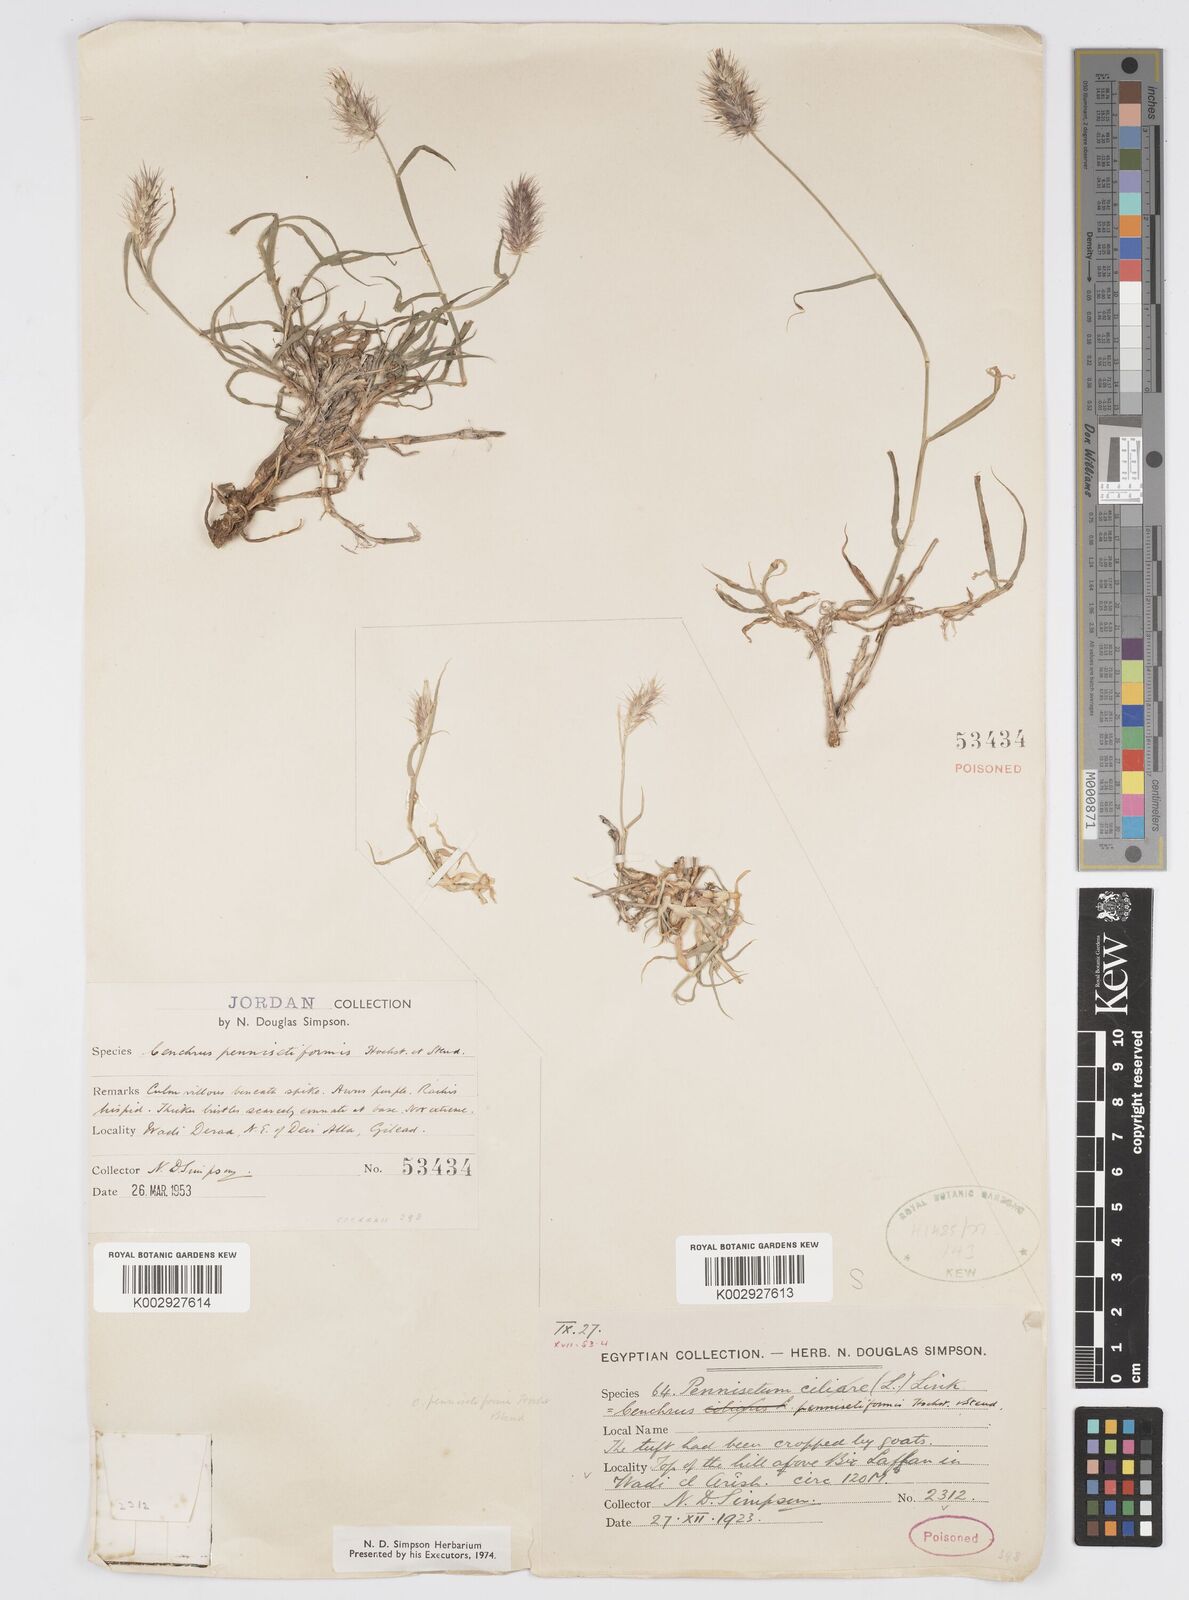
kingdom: Plantae
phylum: Tracheophyta
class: Liliopsida
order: Poales
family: Poaceae
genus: Cenchrus
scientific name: Cenchrus pennisetiformis
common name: Cloncurry
